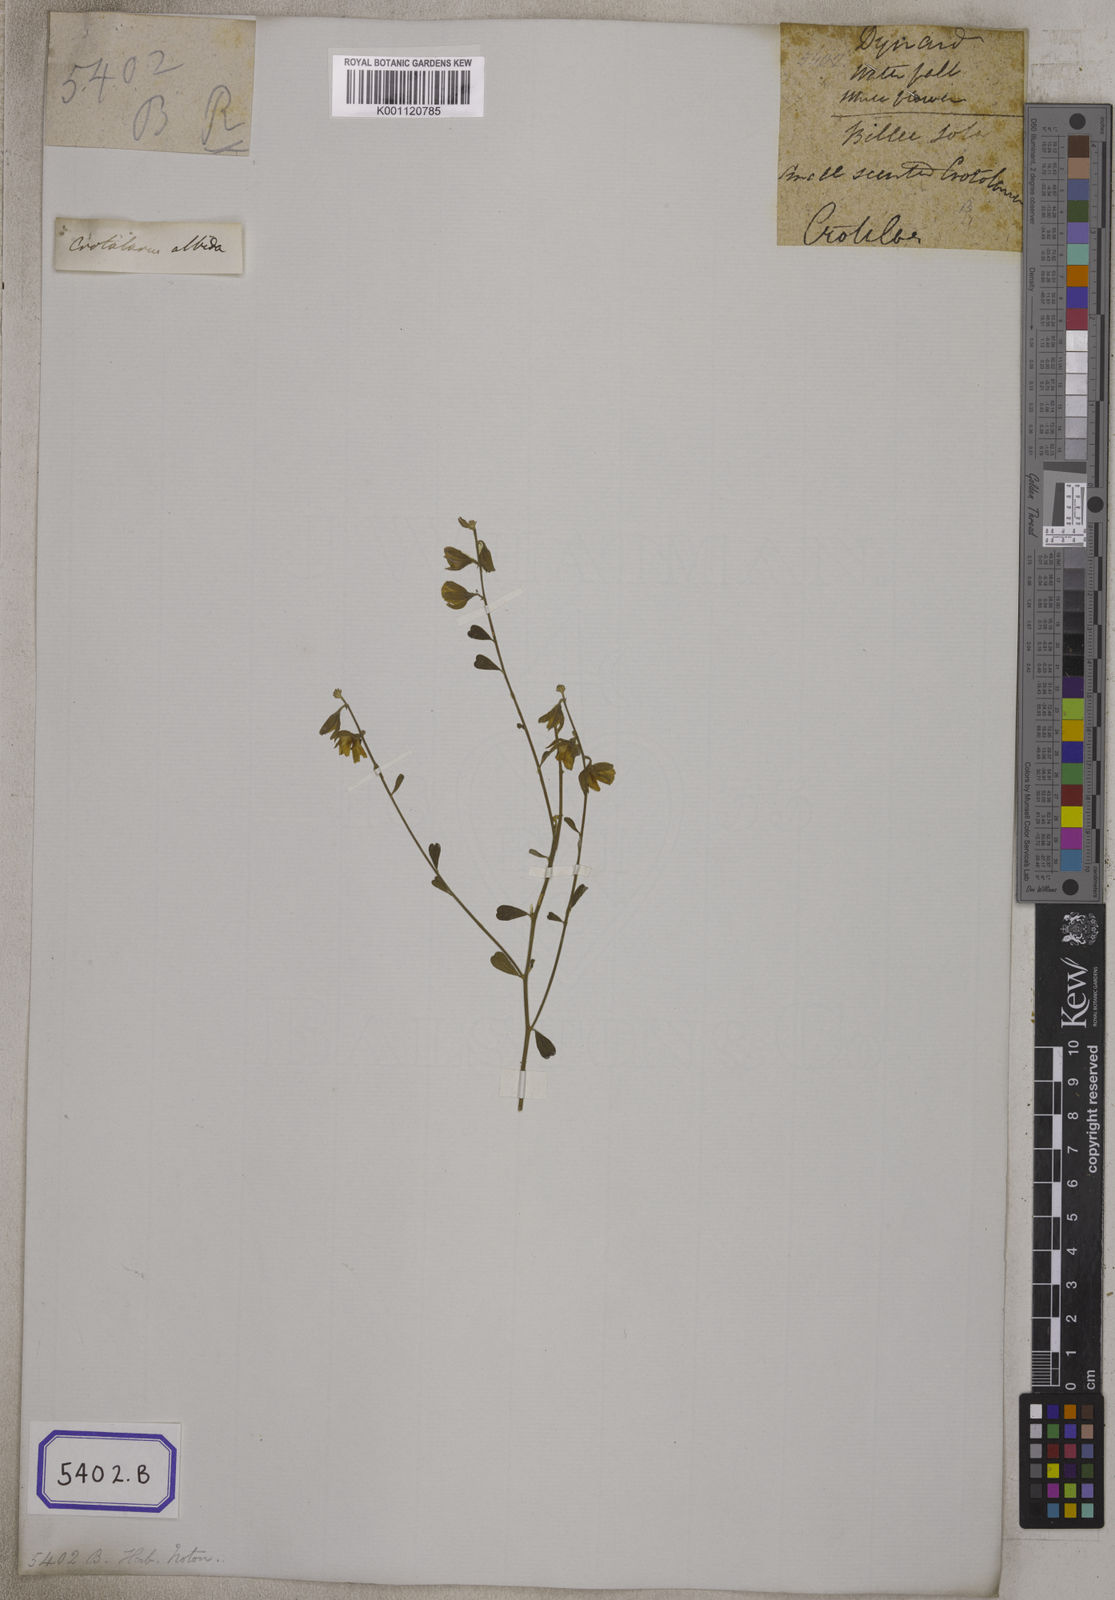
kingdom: Plantae
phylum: Tracheophyta
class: Magnoliopsida
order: Fabales
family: Fabaceae
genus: Crotalaria
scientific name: Crotalaria albida
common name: Taiwan crotalaria
